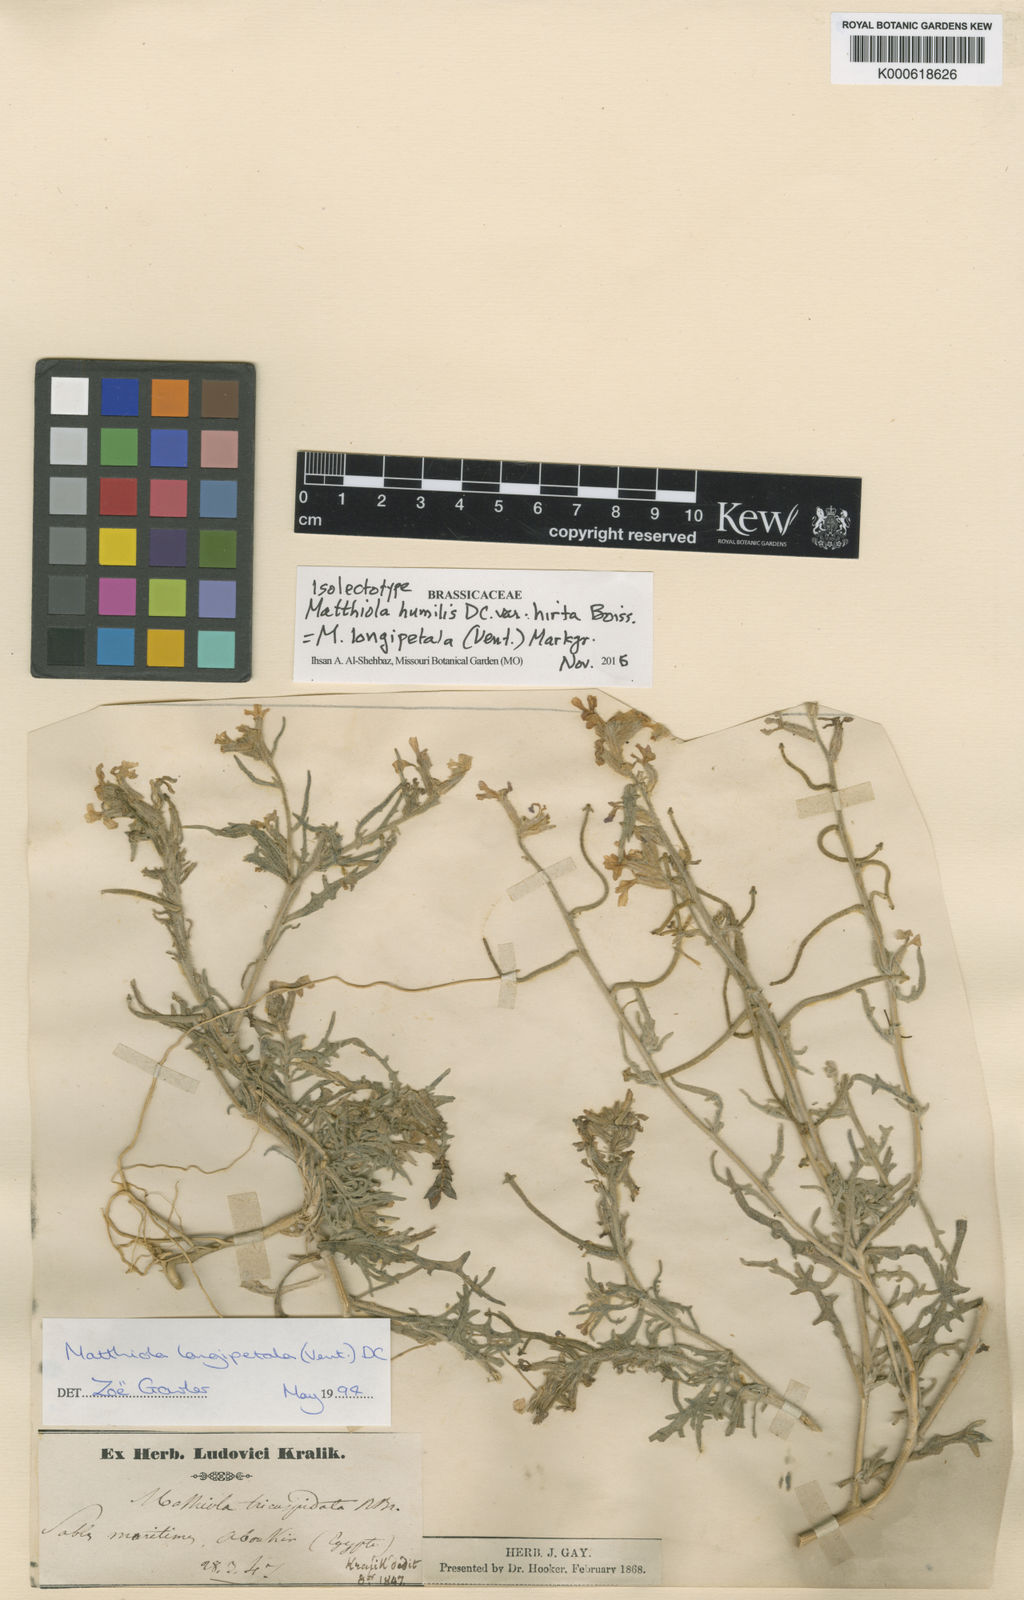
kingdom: Plantae
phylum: Tracheophyta
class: Magnoliopsida
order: Brassicales
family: Brassicaceae
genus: Matthiola
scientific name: Matthiola
